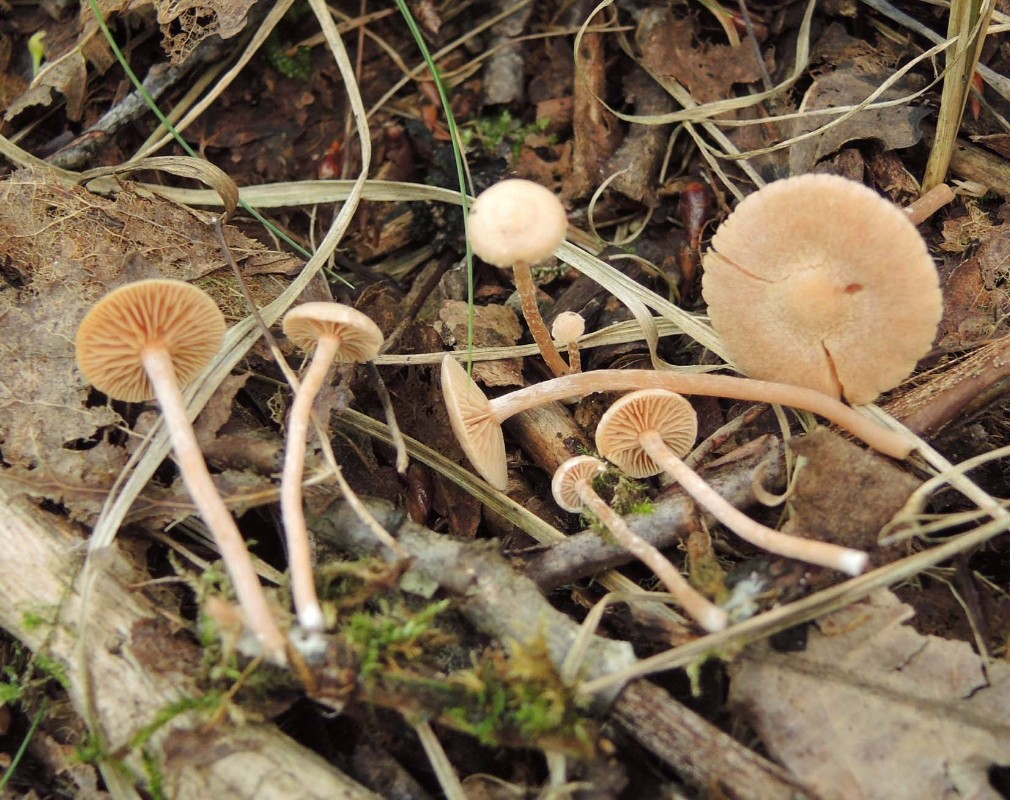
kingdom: Fungi
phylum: Basidiomycota
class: Agaricomycetes
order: Agaricales
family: Tubariaceae
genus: Tubaria
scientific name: Tubaria conspersa
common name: bleg fnughat
